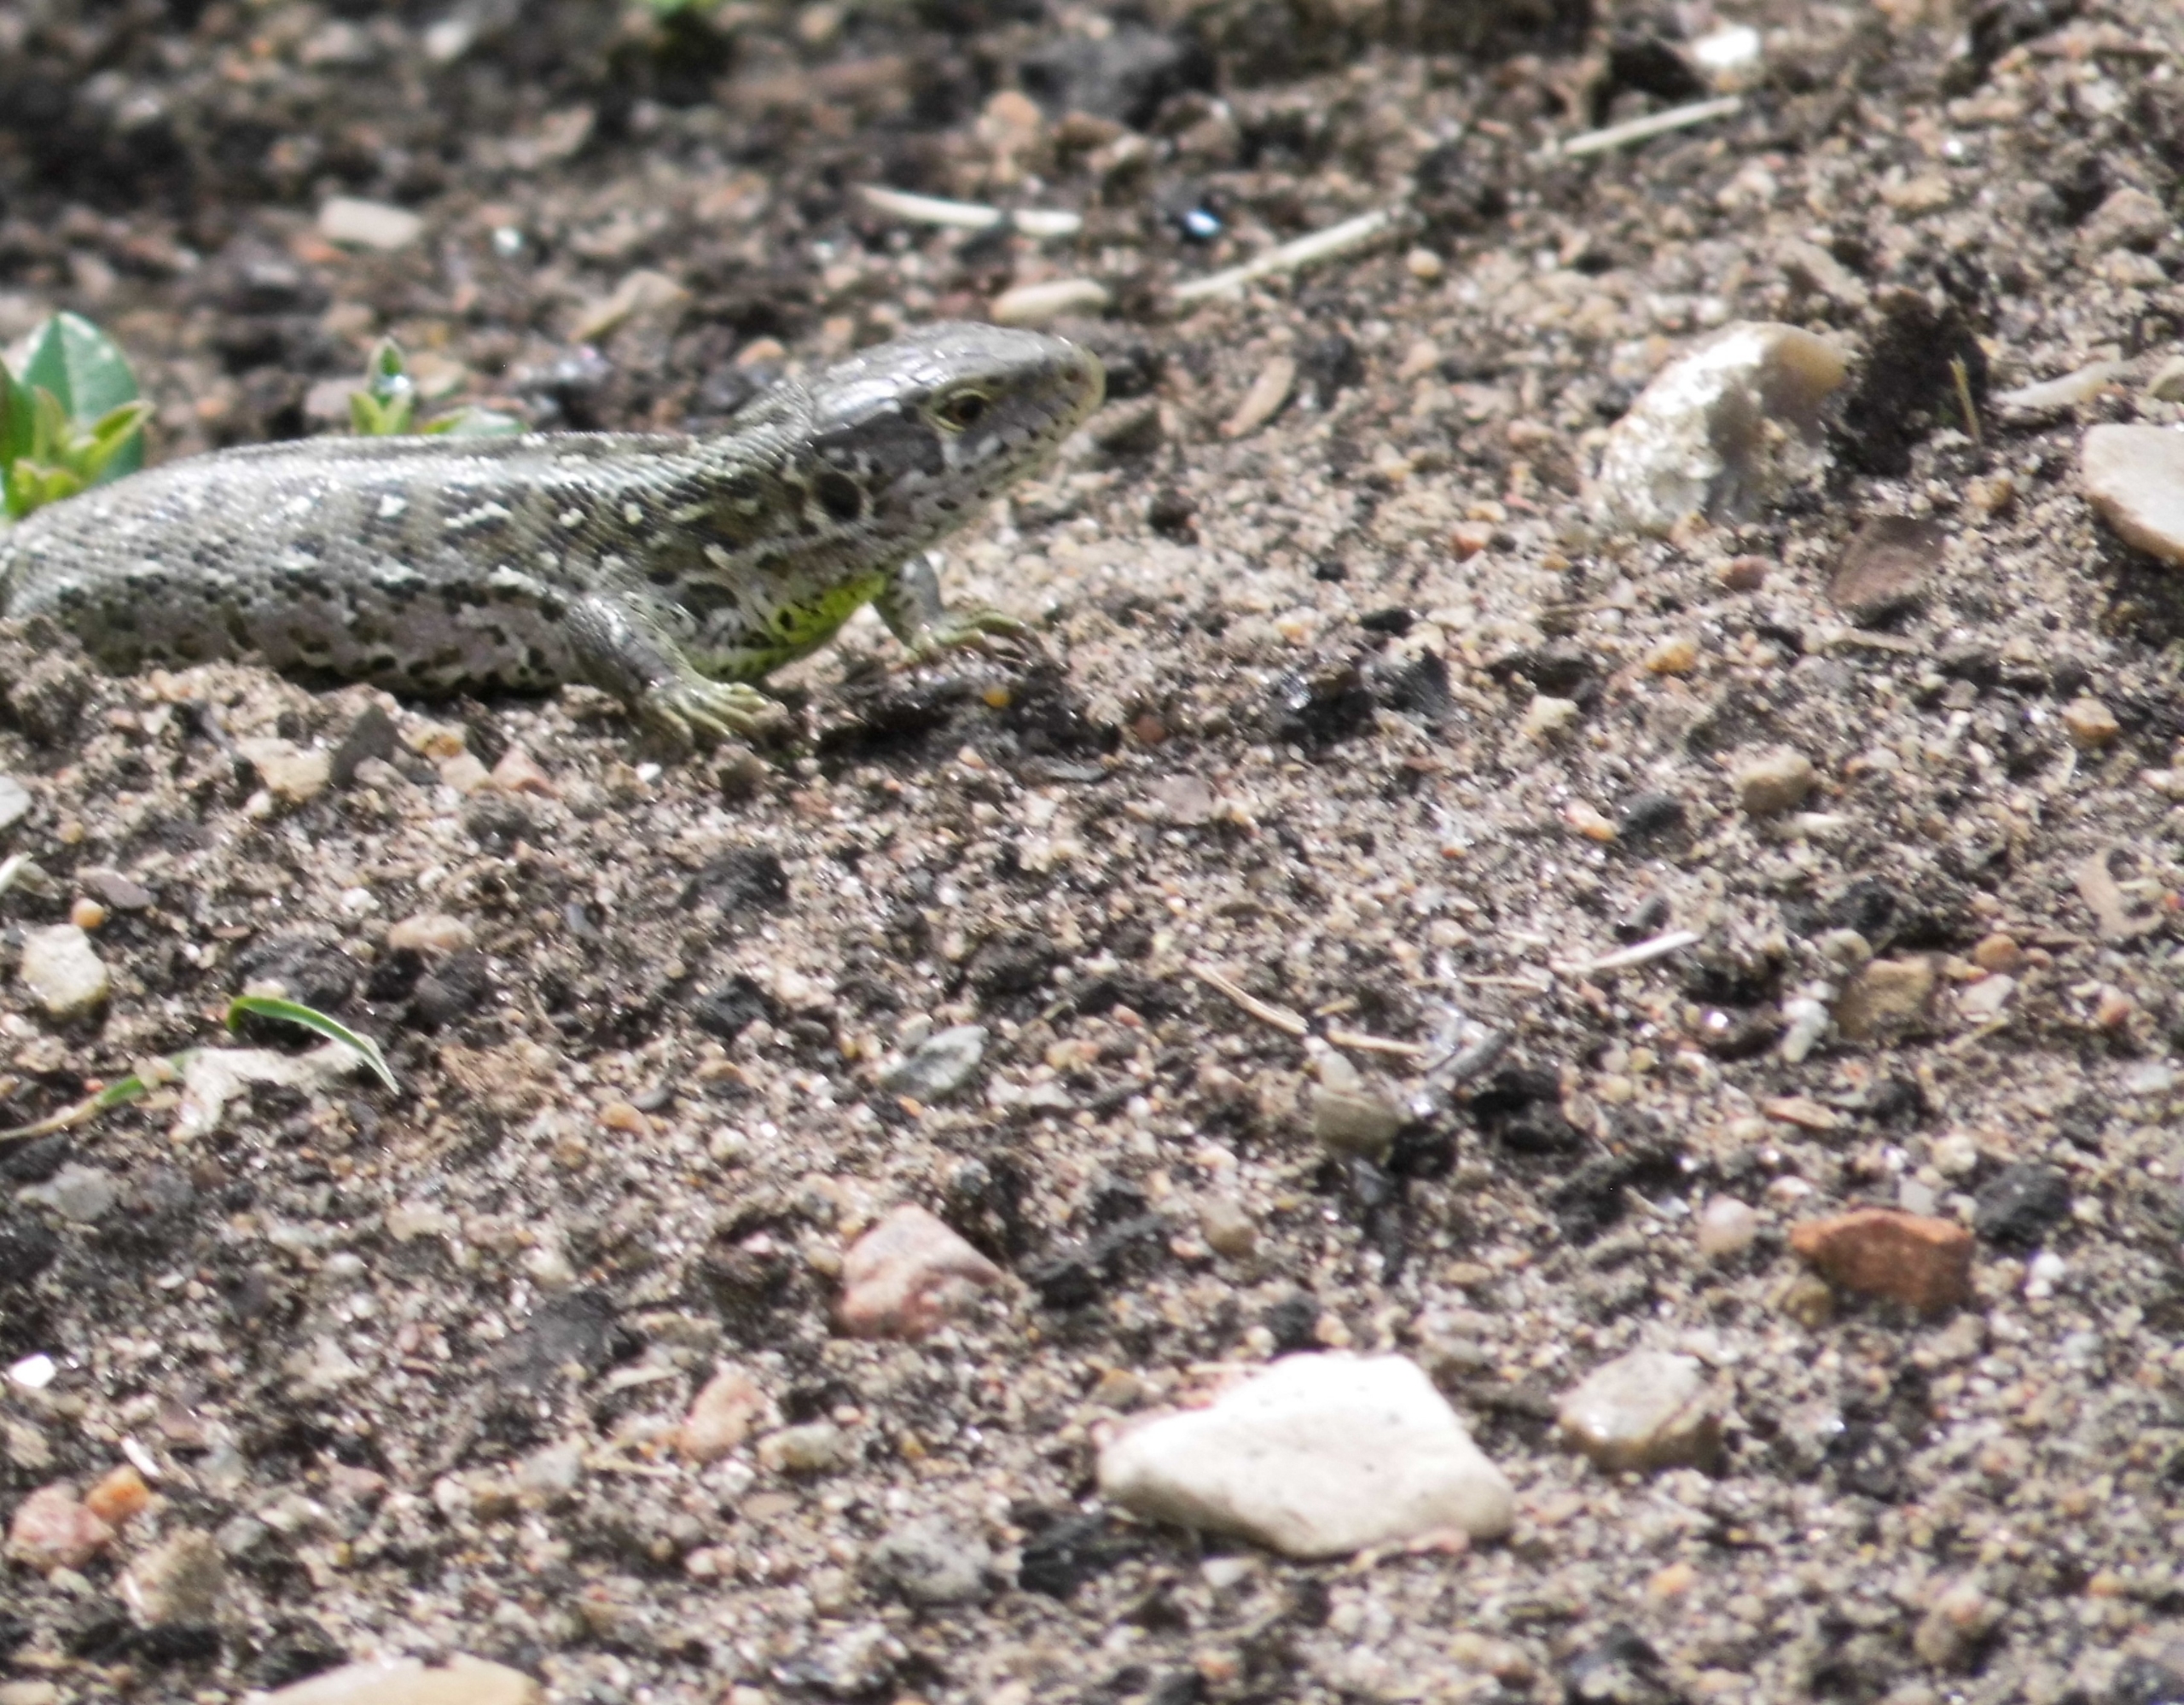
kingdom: Animalia
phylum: Chordata
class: Squamata
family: Lacertidae
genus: Lacerta
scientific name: Lacerta agilis
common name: Markfirben
